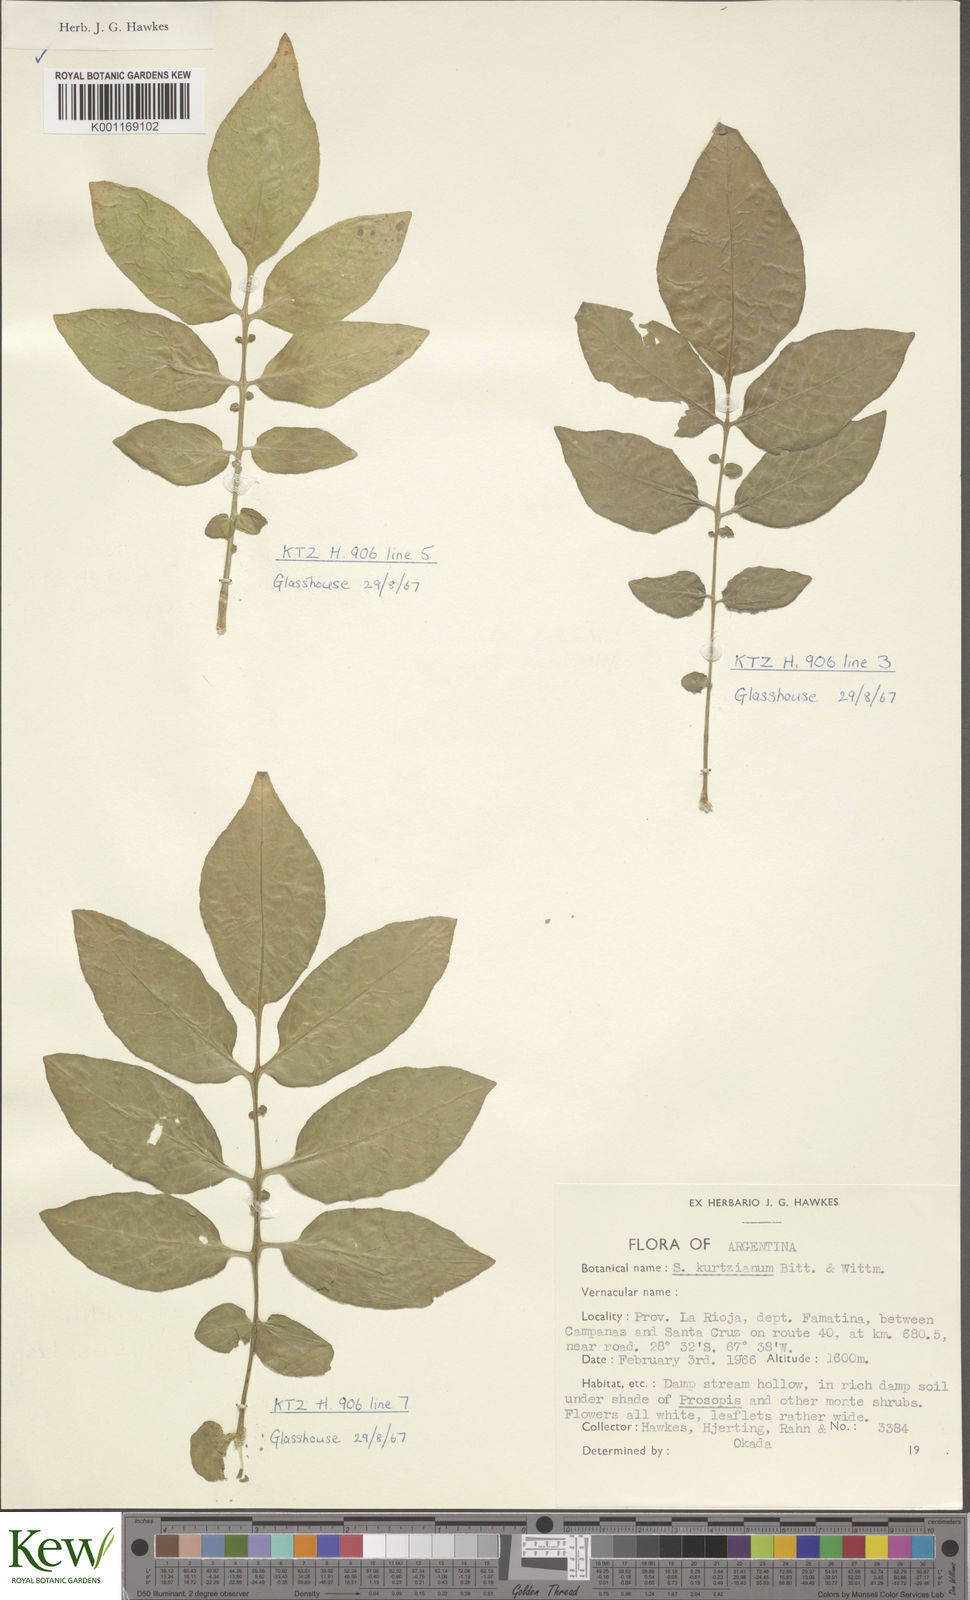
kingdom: Plantae
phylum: Tracheophyta
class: Magnoliopsida
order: Solanales
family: Solanaceae
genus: Solanum
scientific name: Solanum kurtzianum
